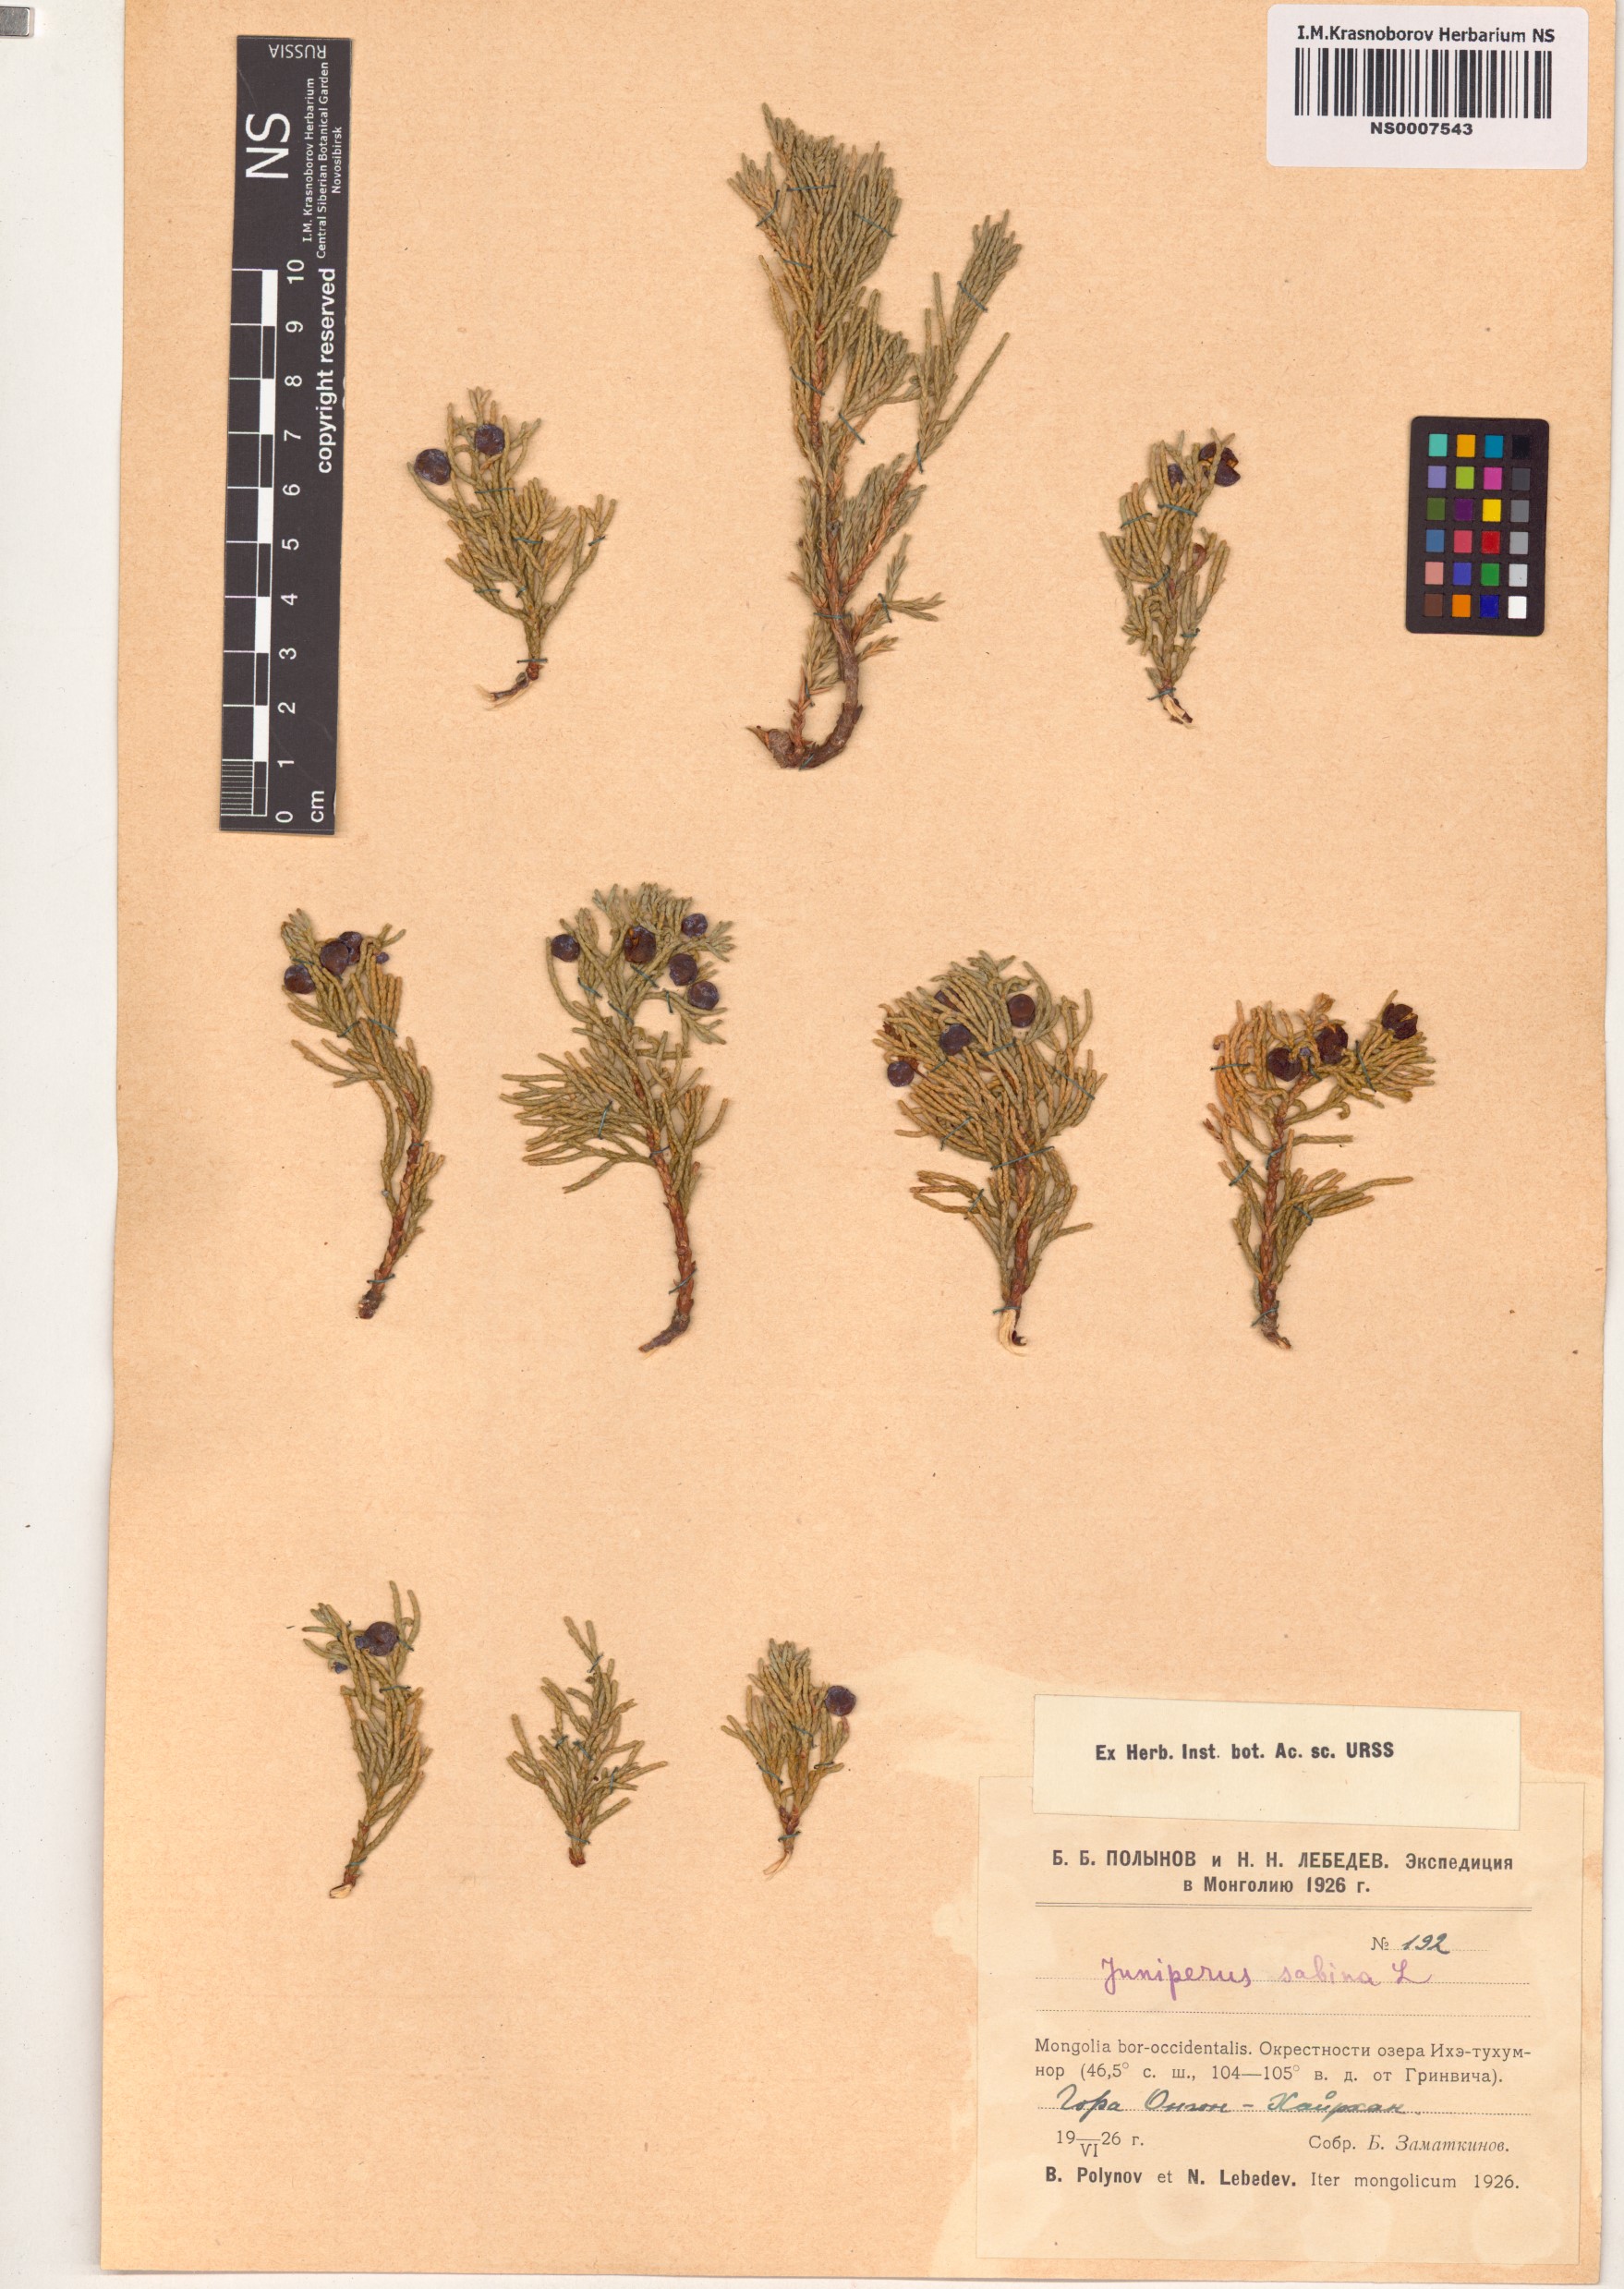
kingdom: Plantae
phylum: Tracheophyta
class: Pinopsida
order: Pinales
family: Cupressaceae
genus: Juniperus
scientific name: Juniperus sabina
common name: Savin
